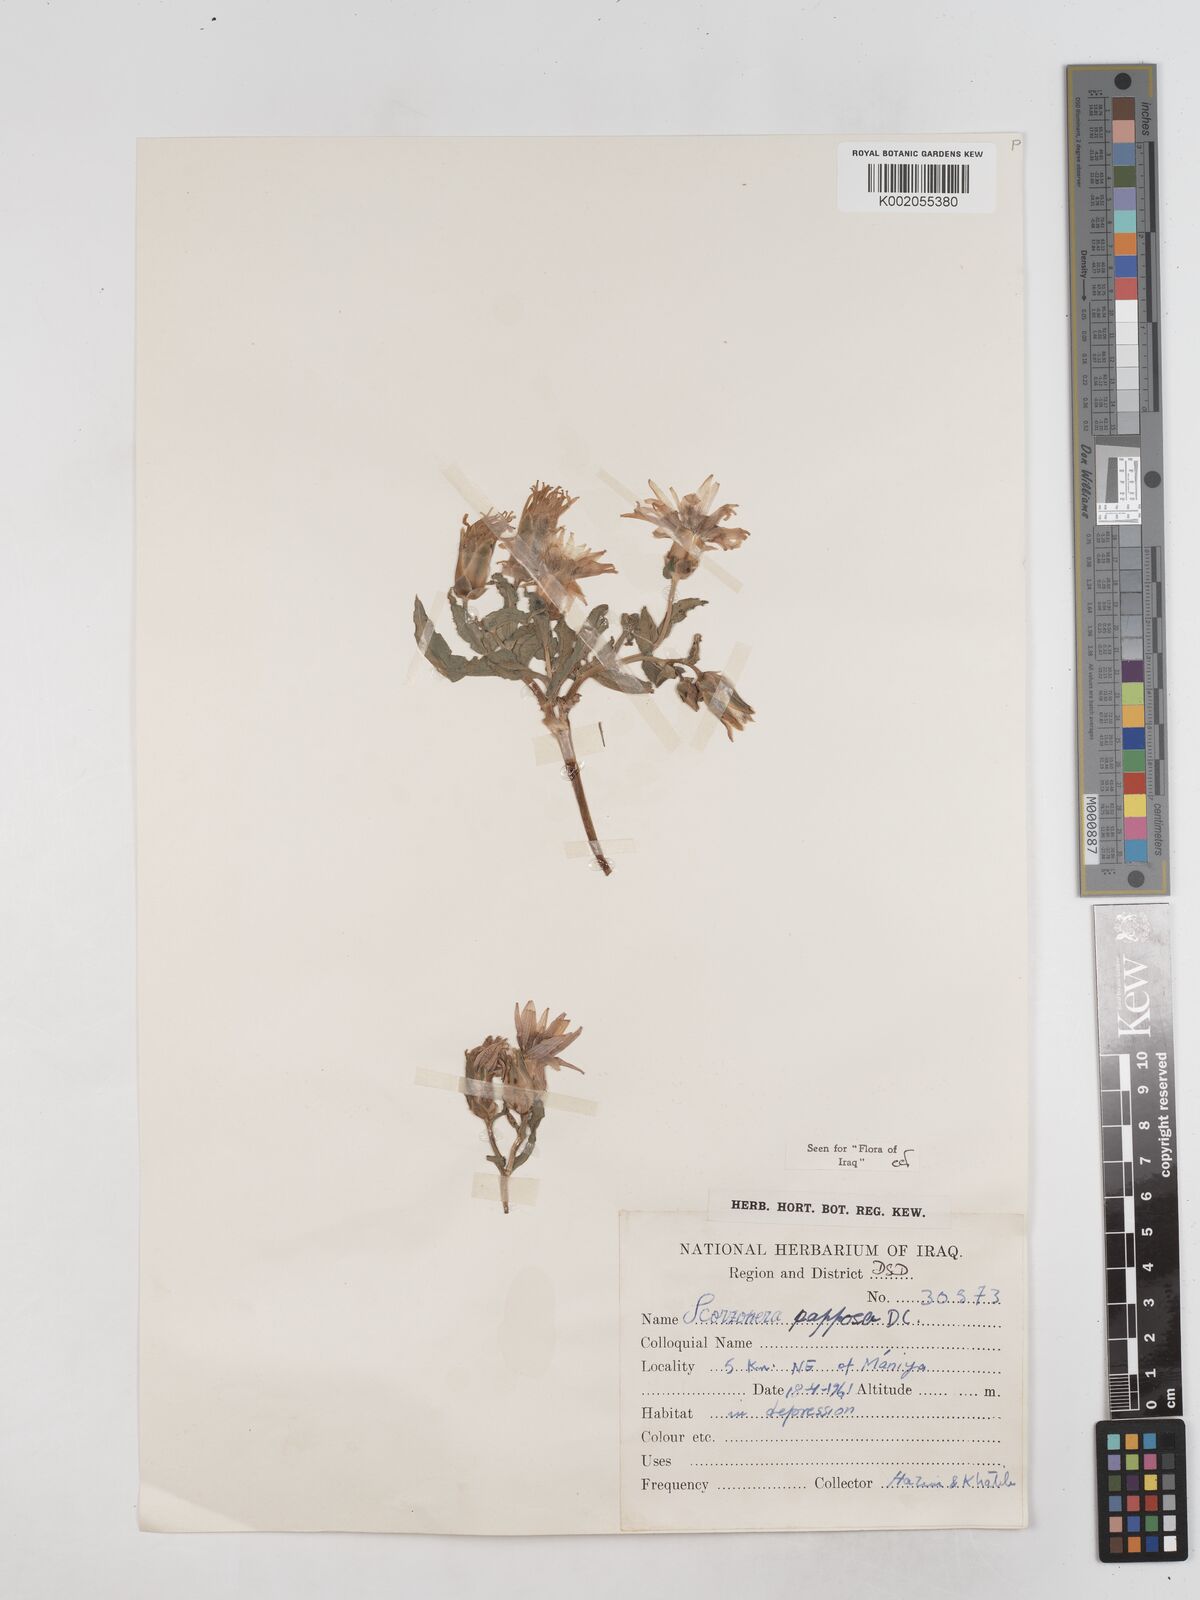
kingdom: Plantae
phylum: Tracheophyta
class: Magnoliopsida
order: Asterales
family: Asteraceae
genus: Pseudopodospermum
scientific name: Pseudopodospermum papposum
